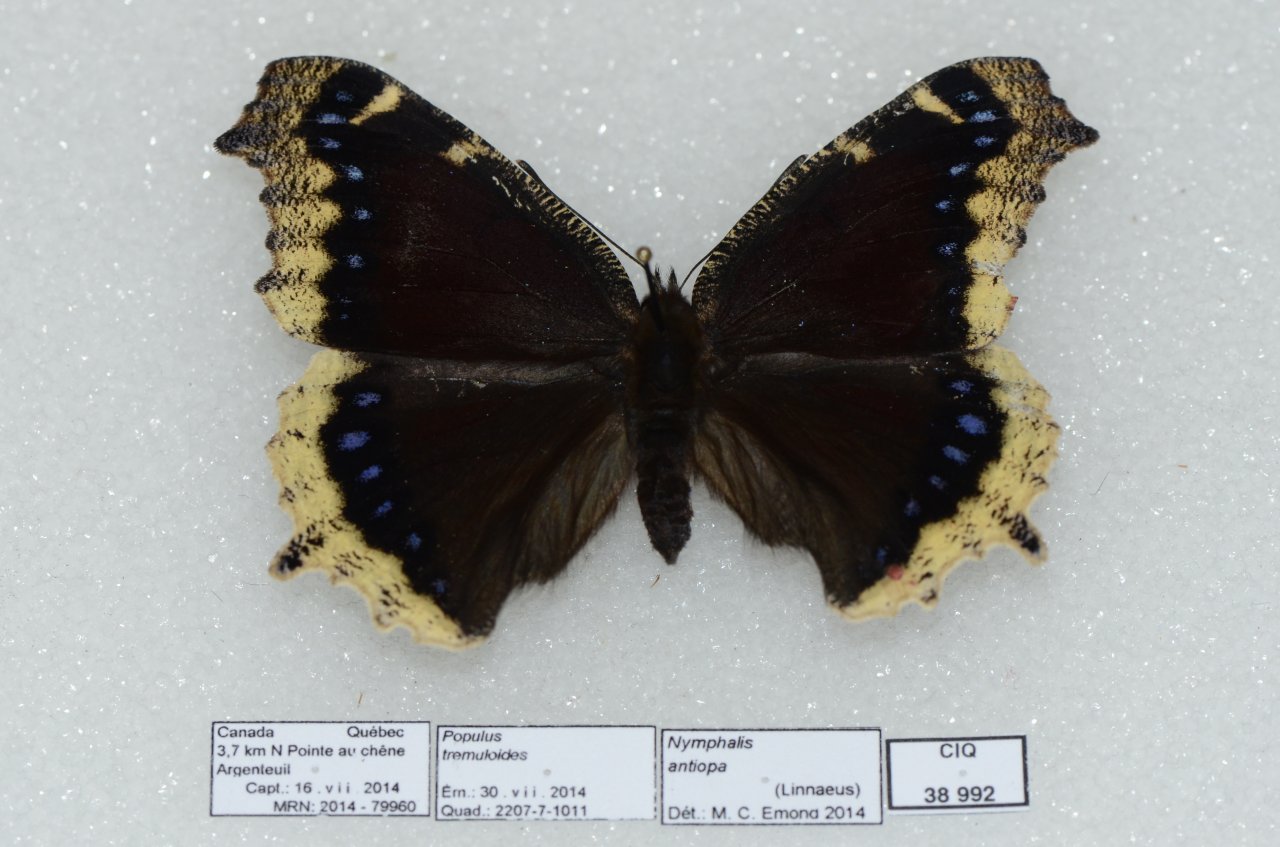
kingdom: Animalia
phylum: Arthropoda
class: Insecta
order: Lepidoptera
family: Nymphalidae
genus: Nymphalis
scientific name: Nymphalis antiopa
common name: Mourning Cloak
